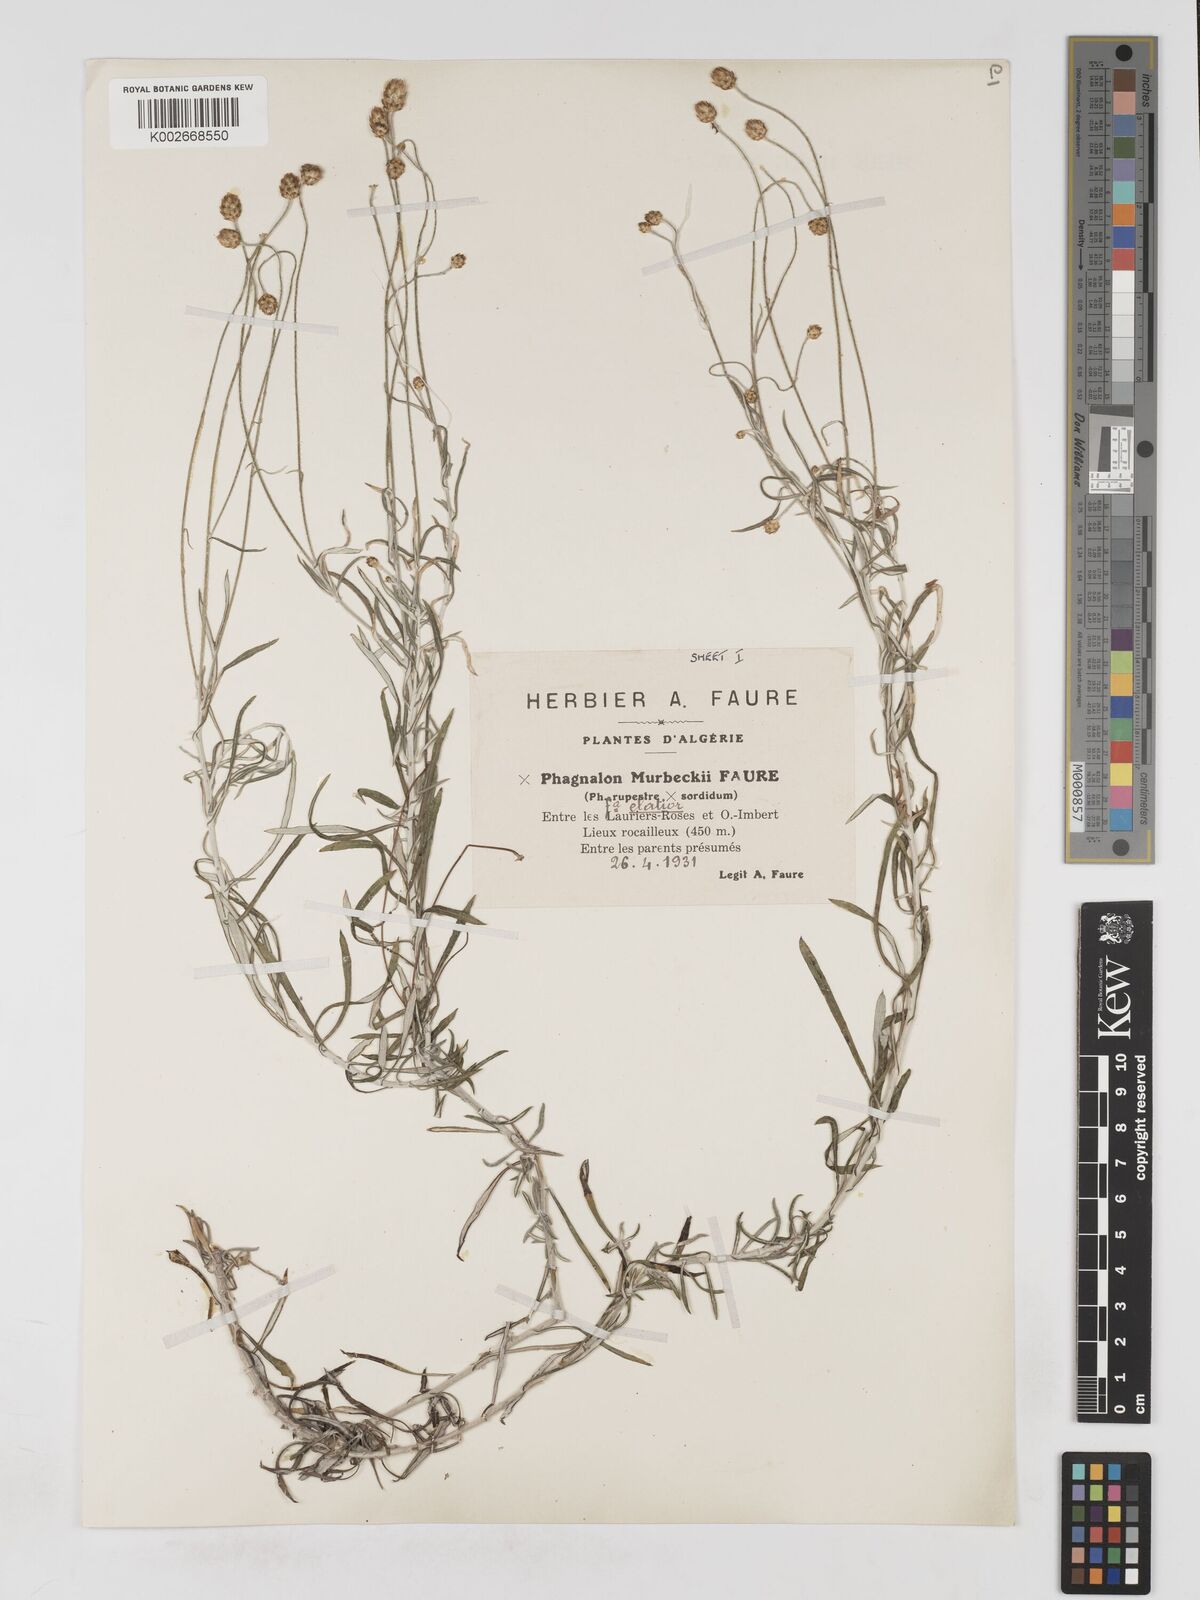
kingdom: Plantae
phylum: Tracheophyta
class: Magnoliopsida
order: Asterales
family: Asteraceae
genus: Phagnalon
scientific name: Phagnalon murbeckii
